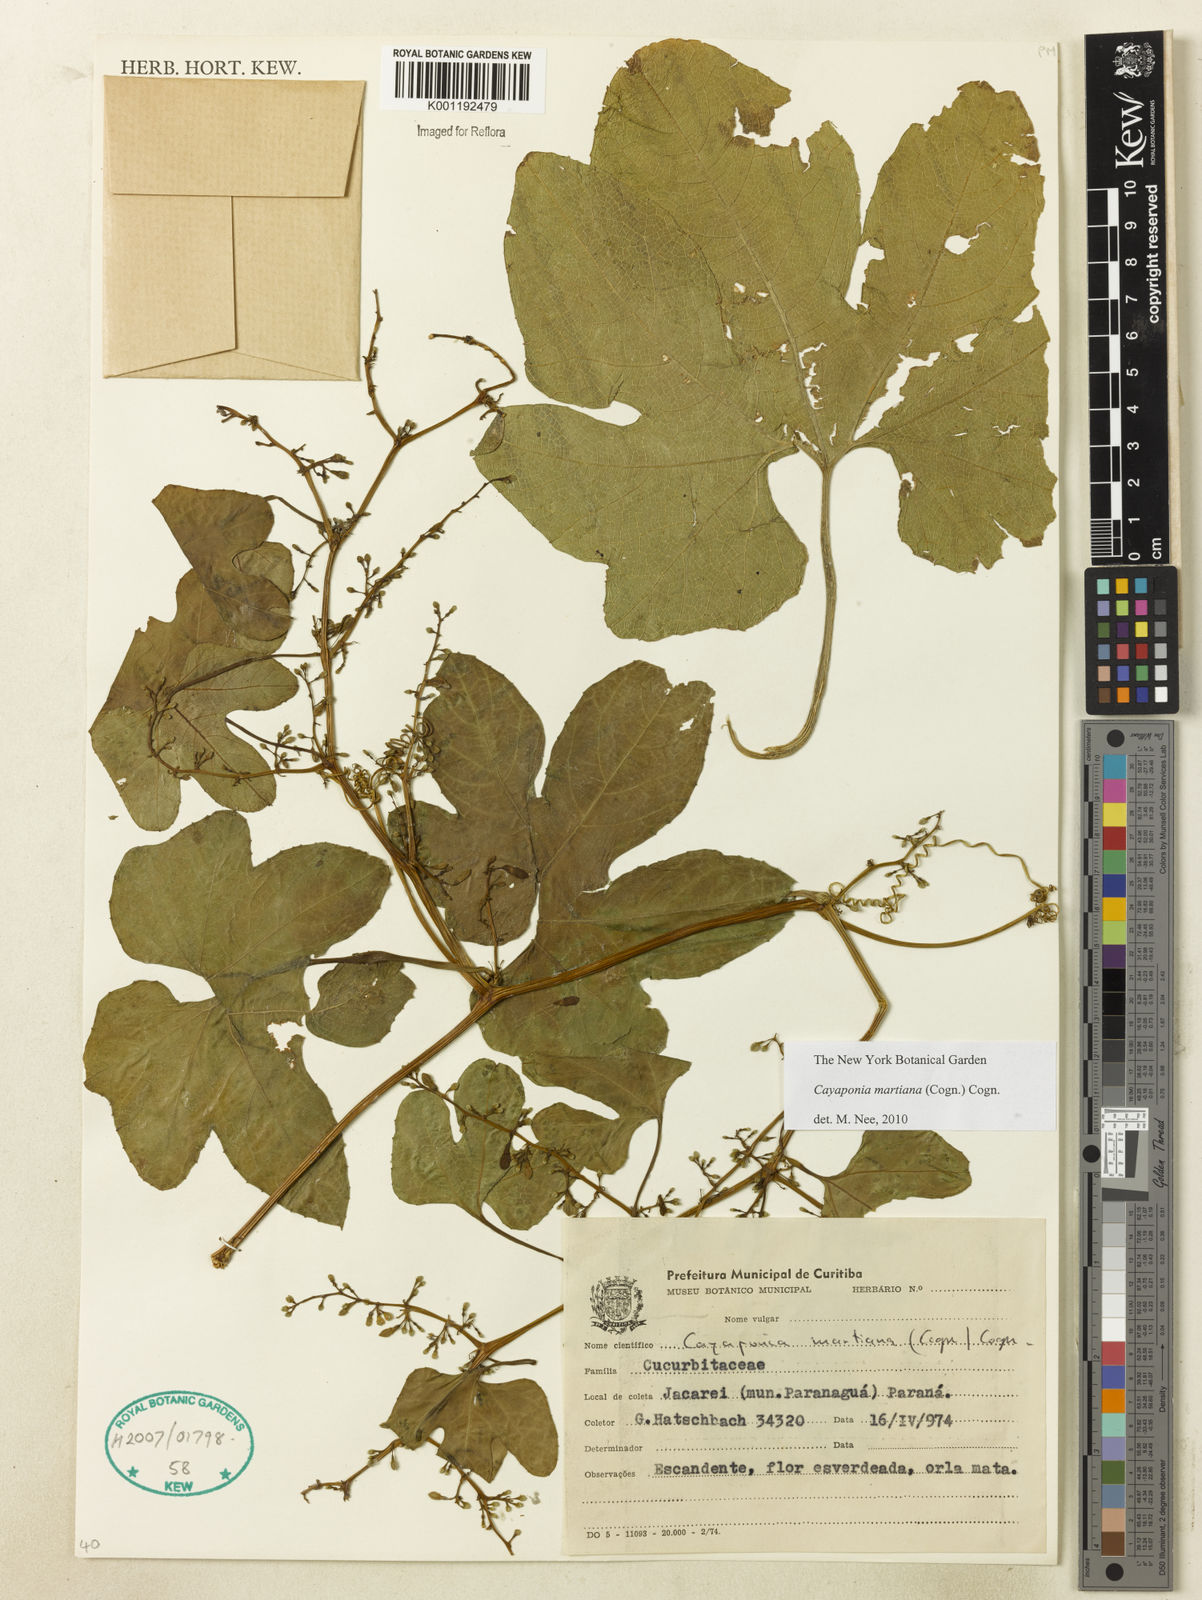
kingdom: Plantae
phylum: Tracheophyta
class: Magnoliopsida
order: Cucurbitales
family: Cucurbitaceae
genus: Cayaponia
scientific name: Cayaponia martiana
